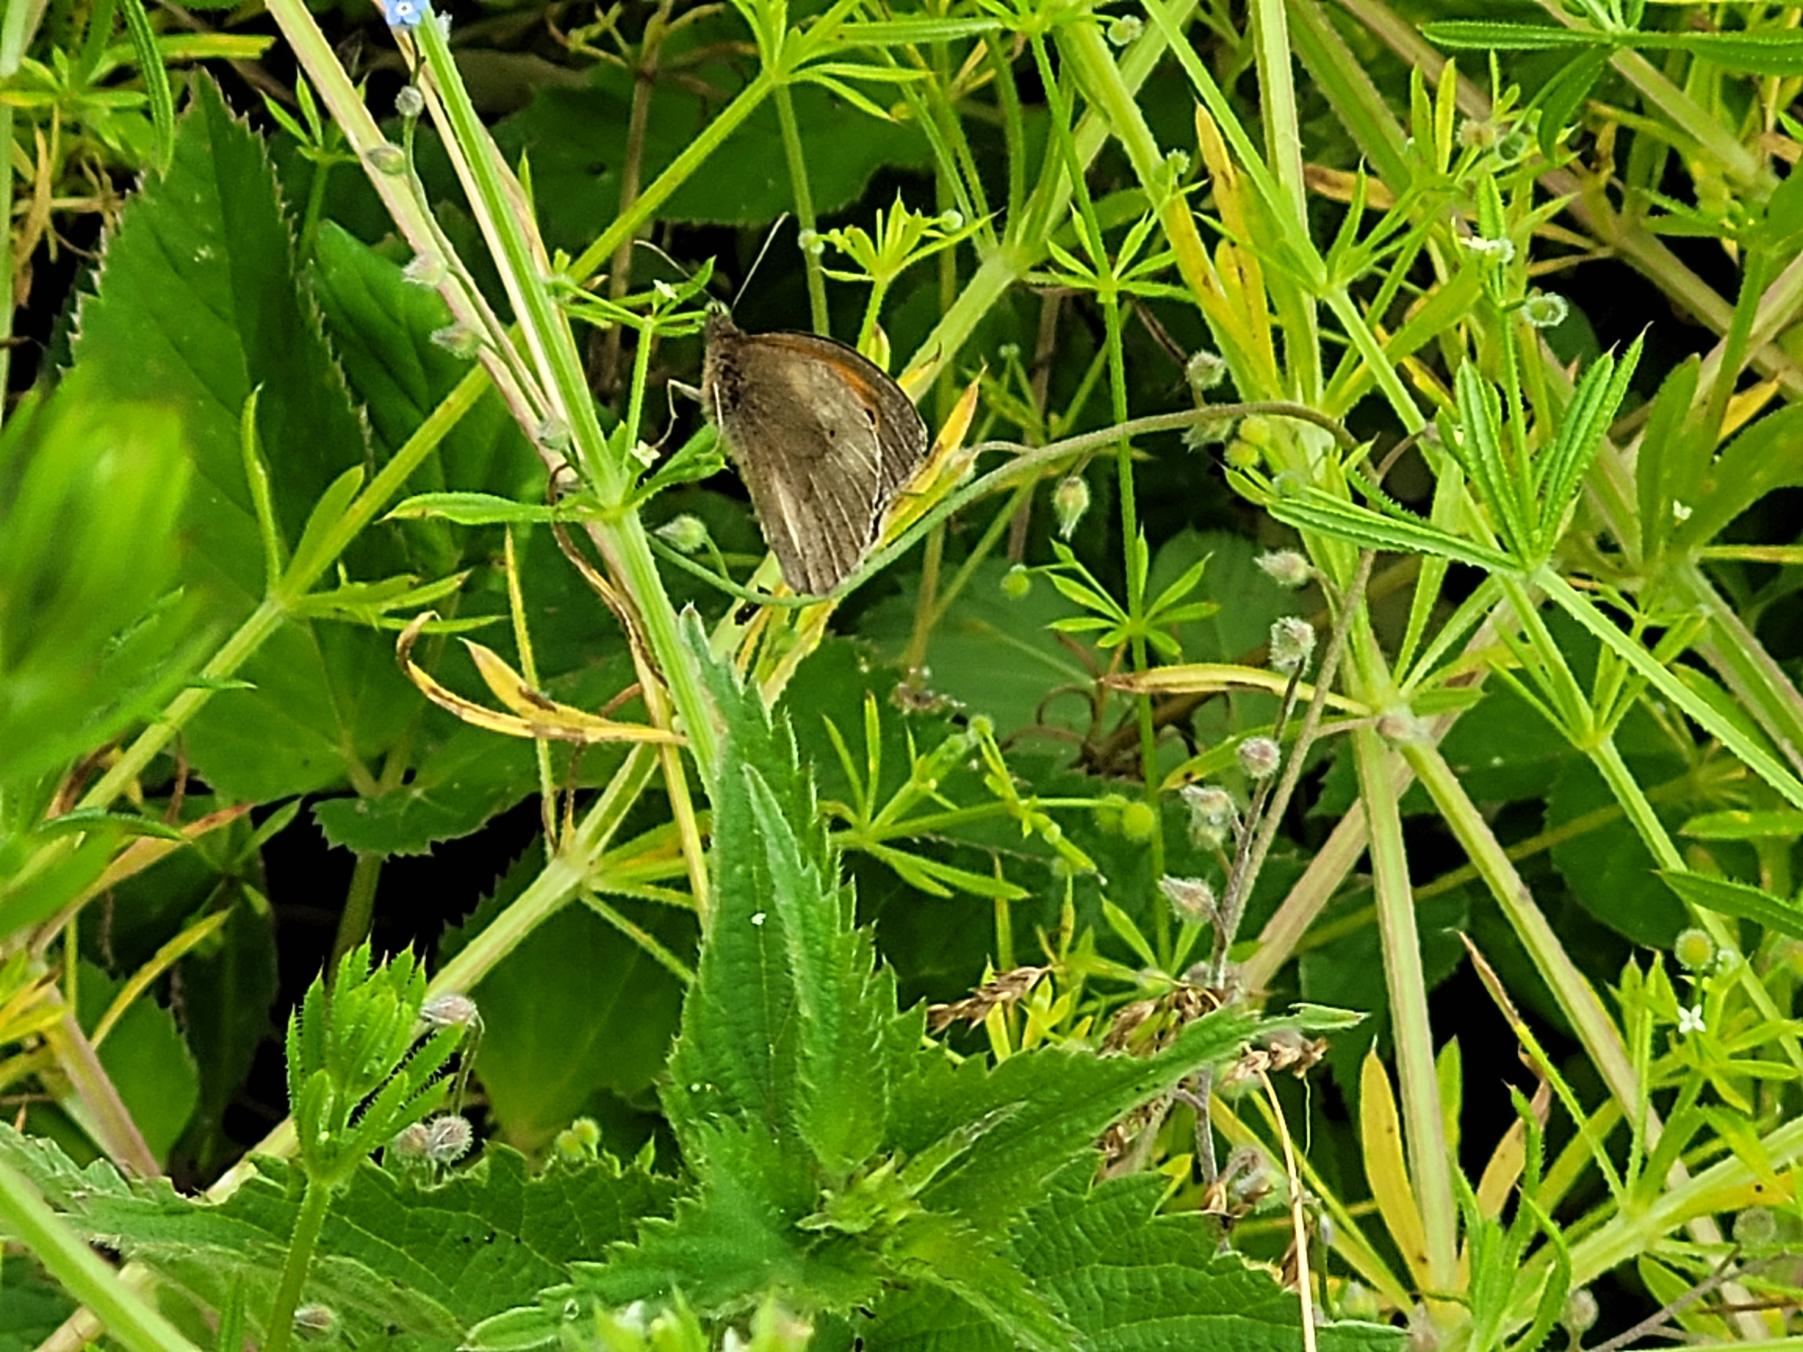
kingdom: Animalia
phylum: Arthropoda
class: Insecta
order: Lepidoptera
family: Nymphalidae
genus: Maniola
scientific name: Maniola jurtina
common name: Græsrandøje
